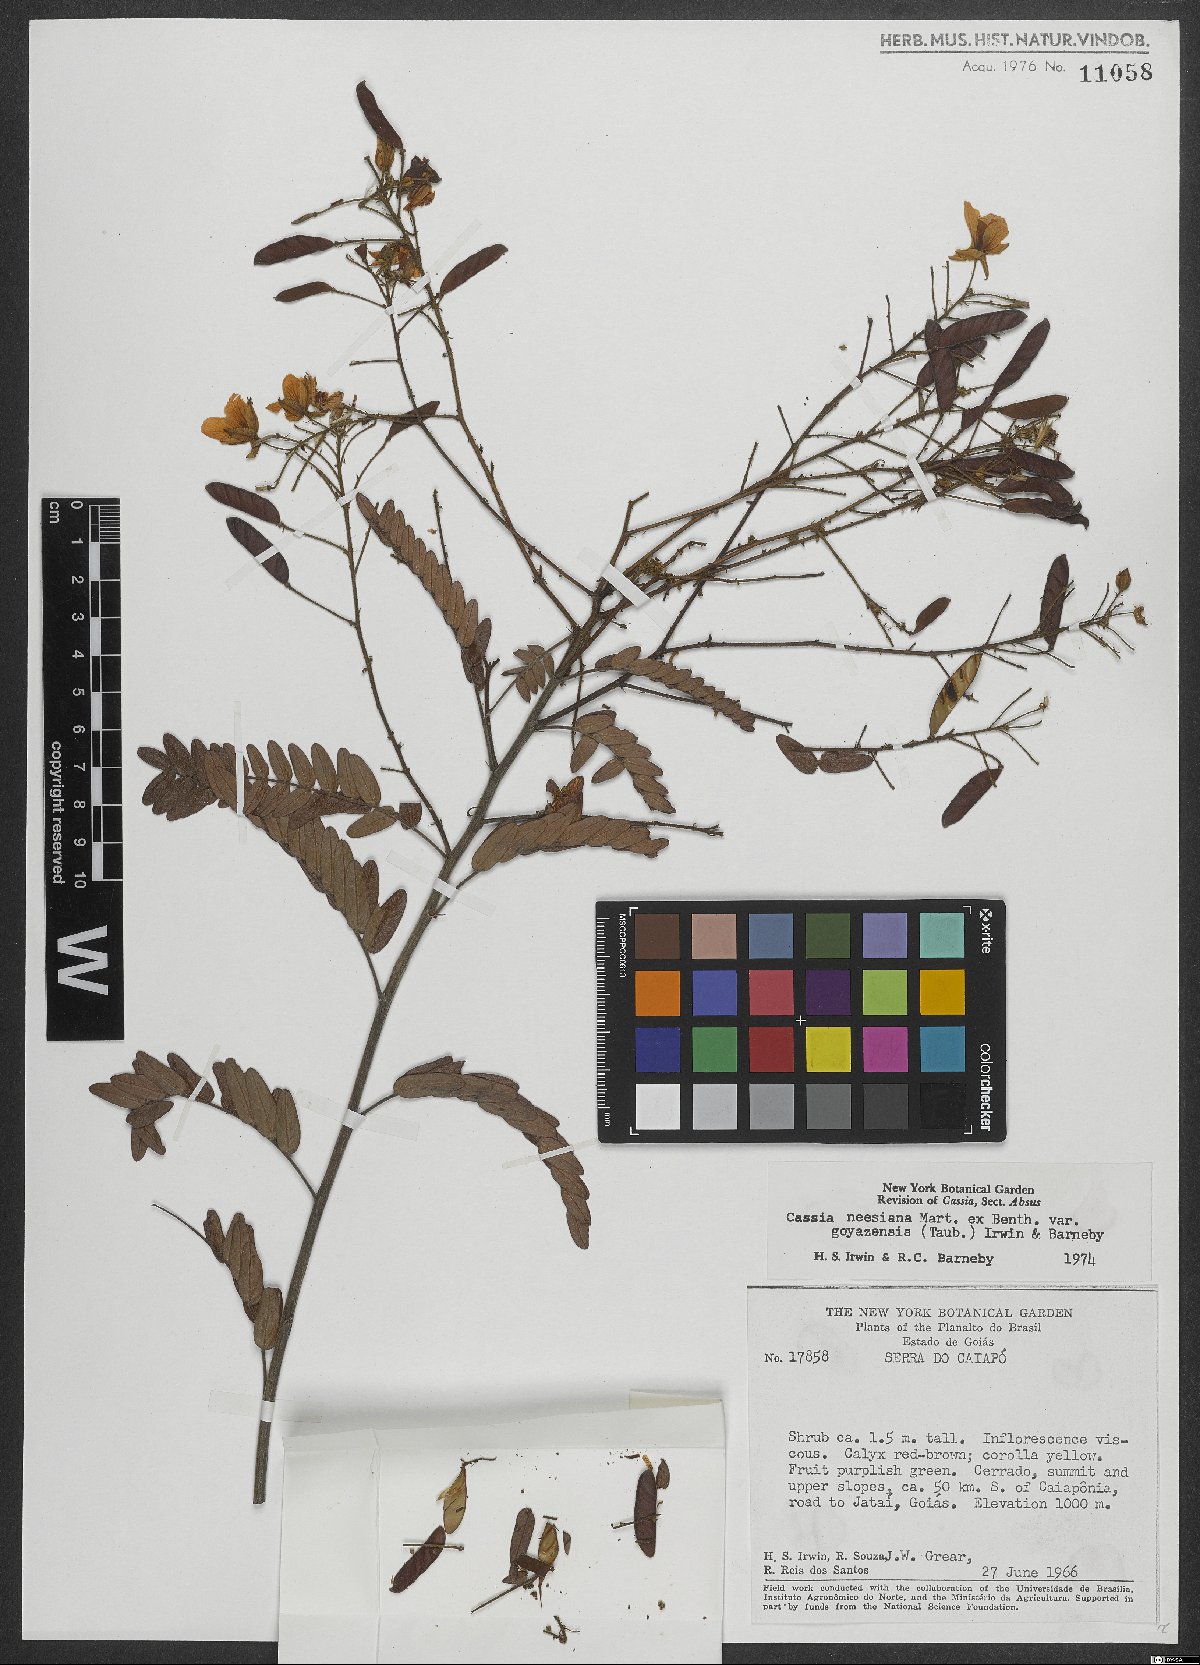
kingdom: Plantae
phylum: Tracheophyta
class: Magnoliopsida
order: Fabales
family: Fabaceae
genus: Chamaecrista
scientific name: Chamaecrista neesiana
